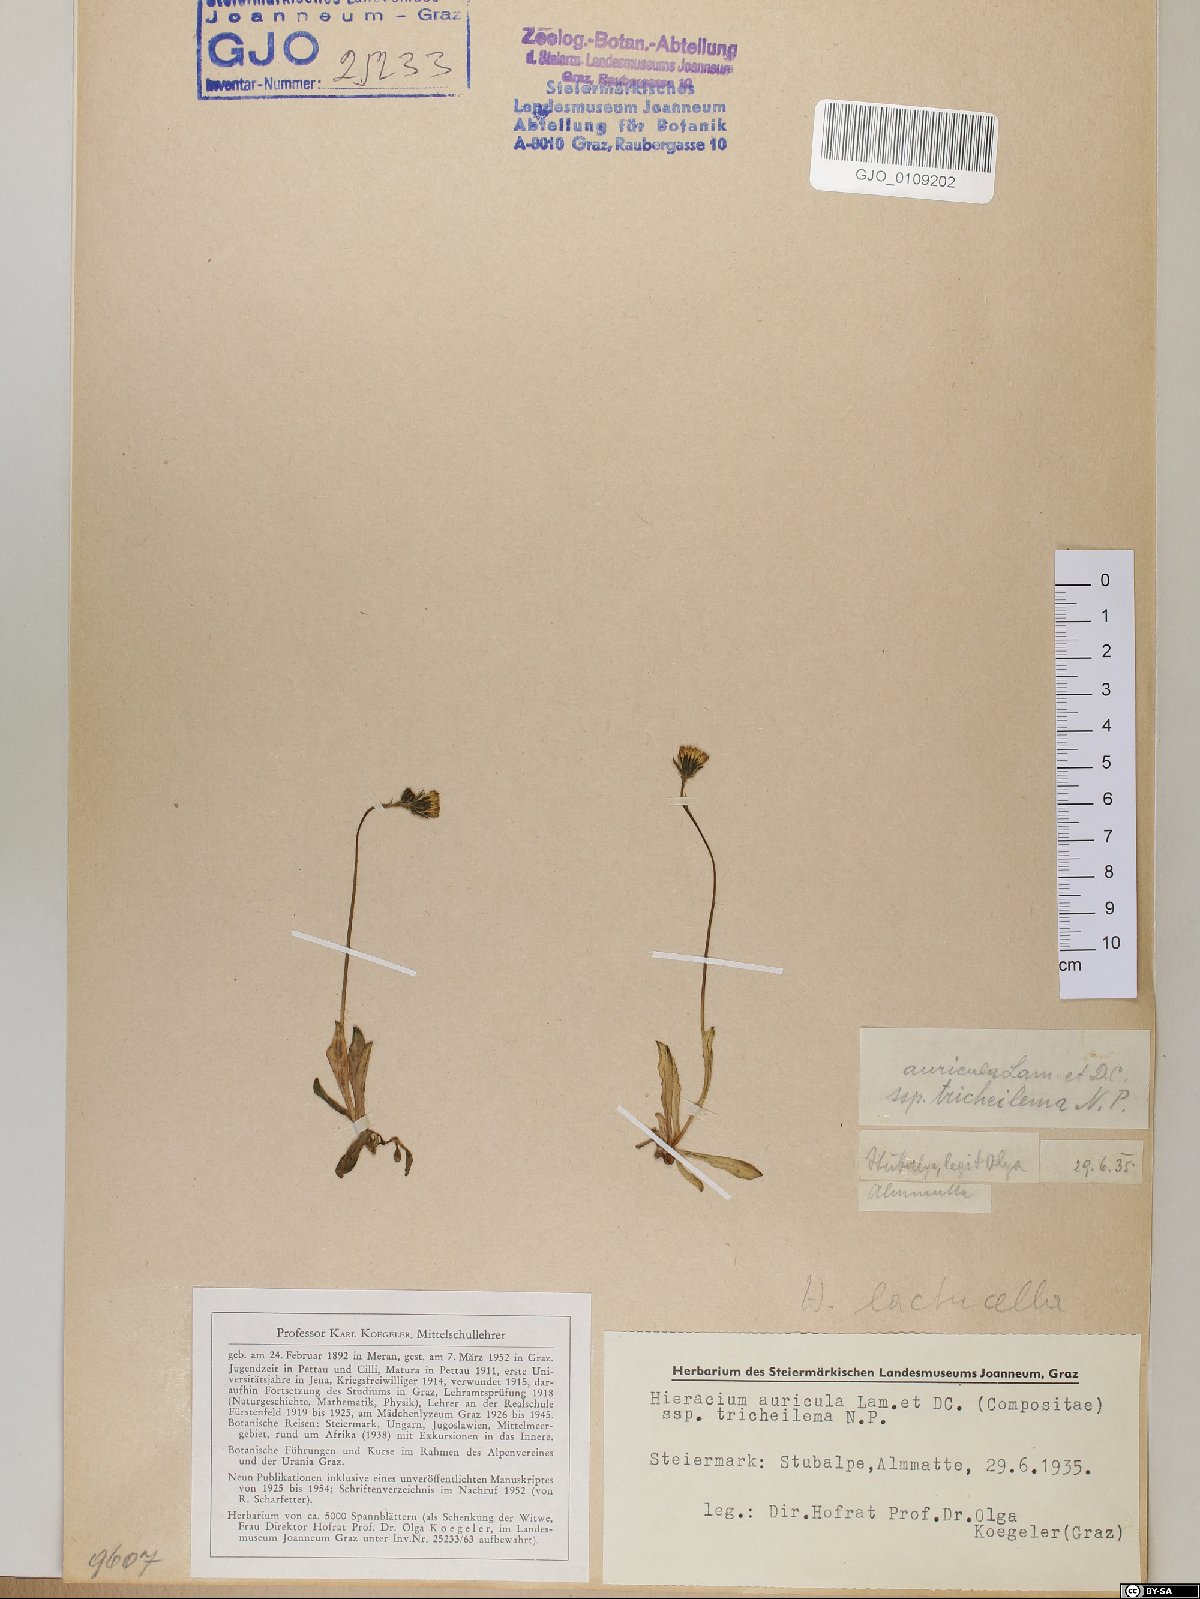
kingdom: Plantae
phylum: Tracheophyta
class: Magnoliopsida
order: Asterales
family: Asteraceae
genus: Pilosella
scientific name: Pilosella lactucella
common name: Glaucous fox-and-cubs
